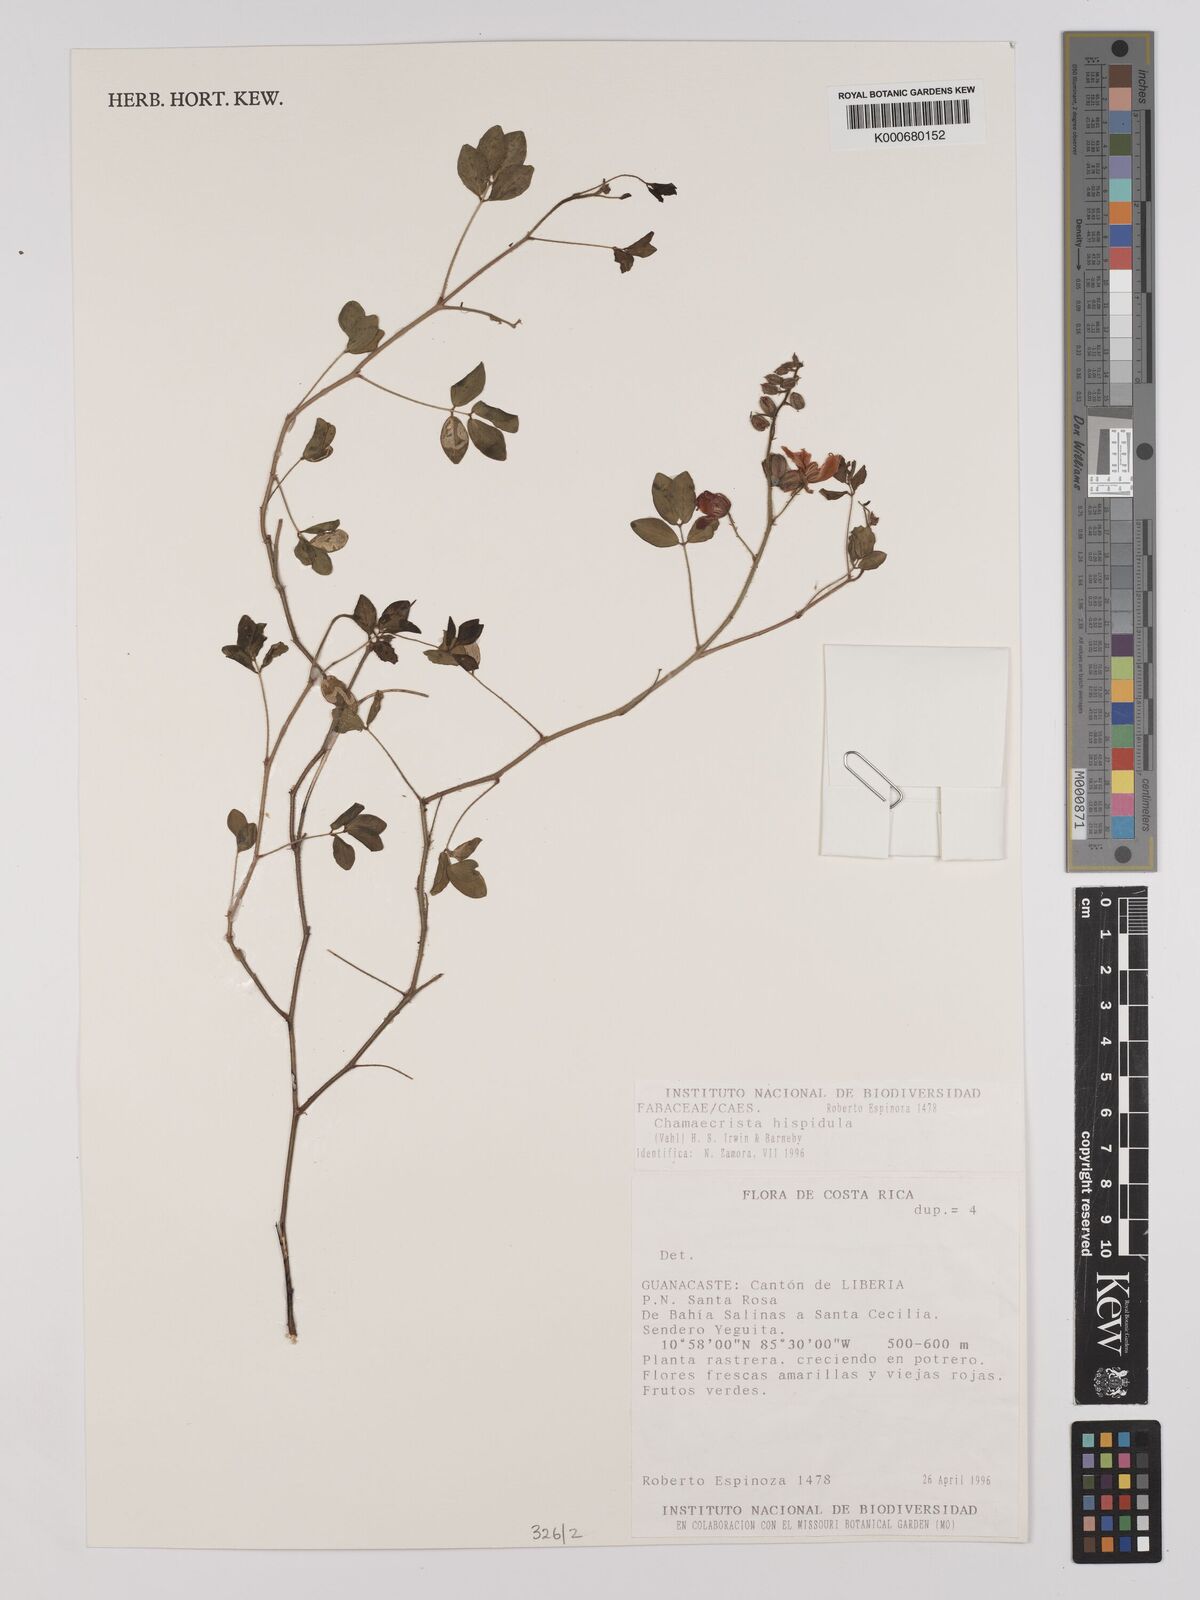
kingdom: Plantae
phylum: Tracheophyta
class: Magnoliopsida
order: Fabales
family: Fabaceae
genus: Chamaecrista
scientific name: Chamaecrista hispidula
